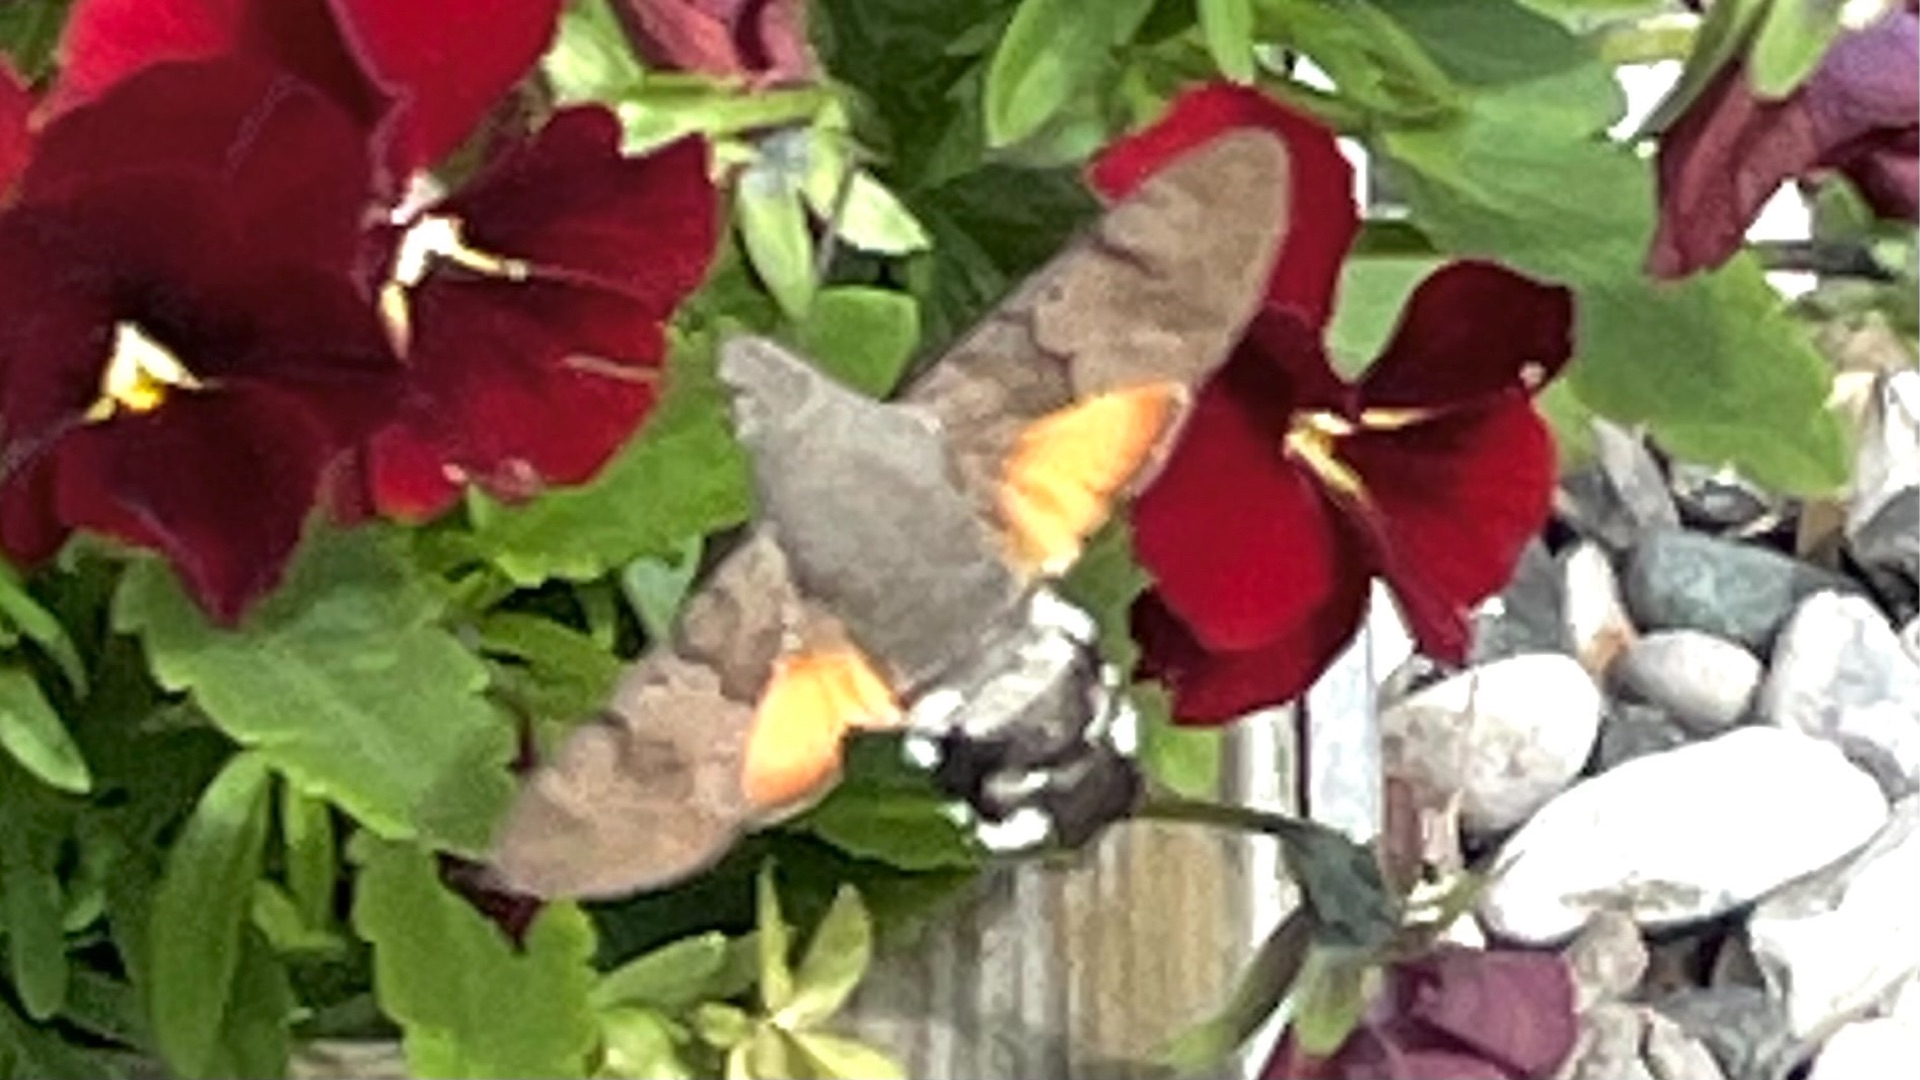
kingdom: Animalia
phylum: Arthropoda
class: Insecta
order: Lepidoptera
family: Sphingidae
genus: Macroglossum
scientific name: Macroglossum stellatarum
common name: Duehale
